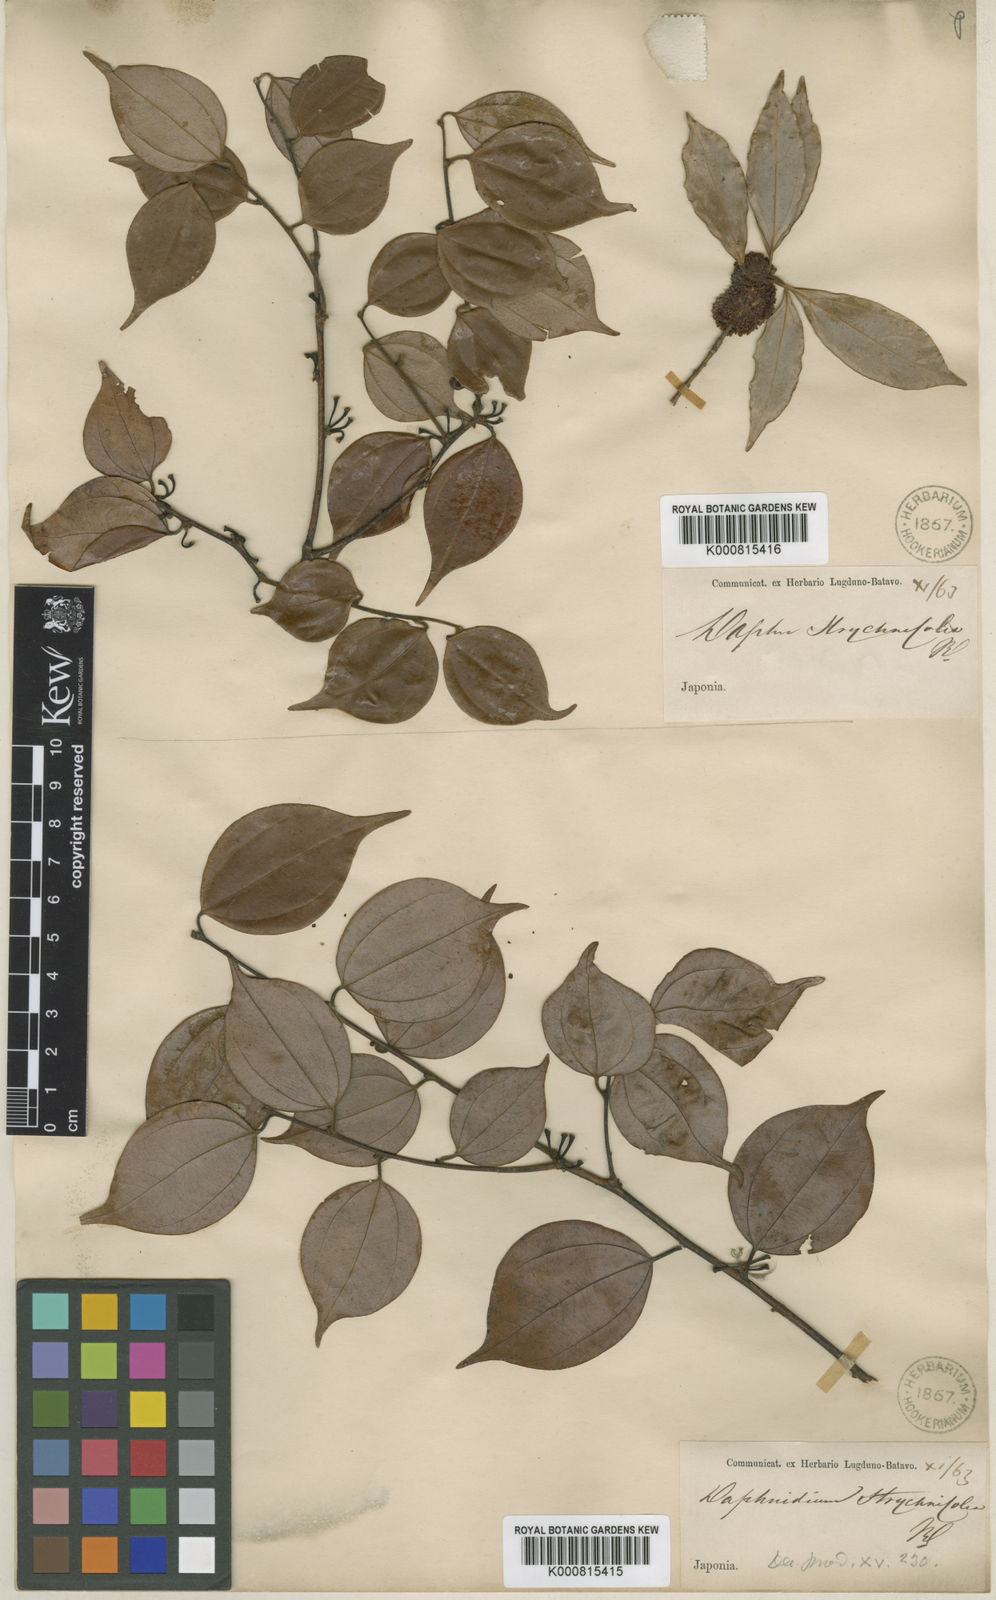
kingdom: Plantae
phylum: Tracheophyta
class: Magnoliopsida
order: Laurales
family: Lauraceae
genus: Lindera
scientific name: Lindera aggregata
